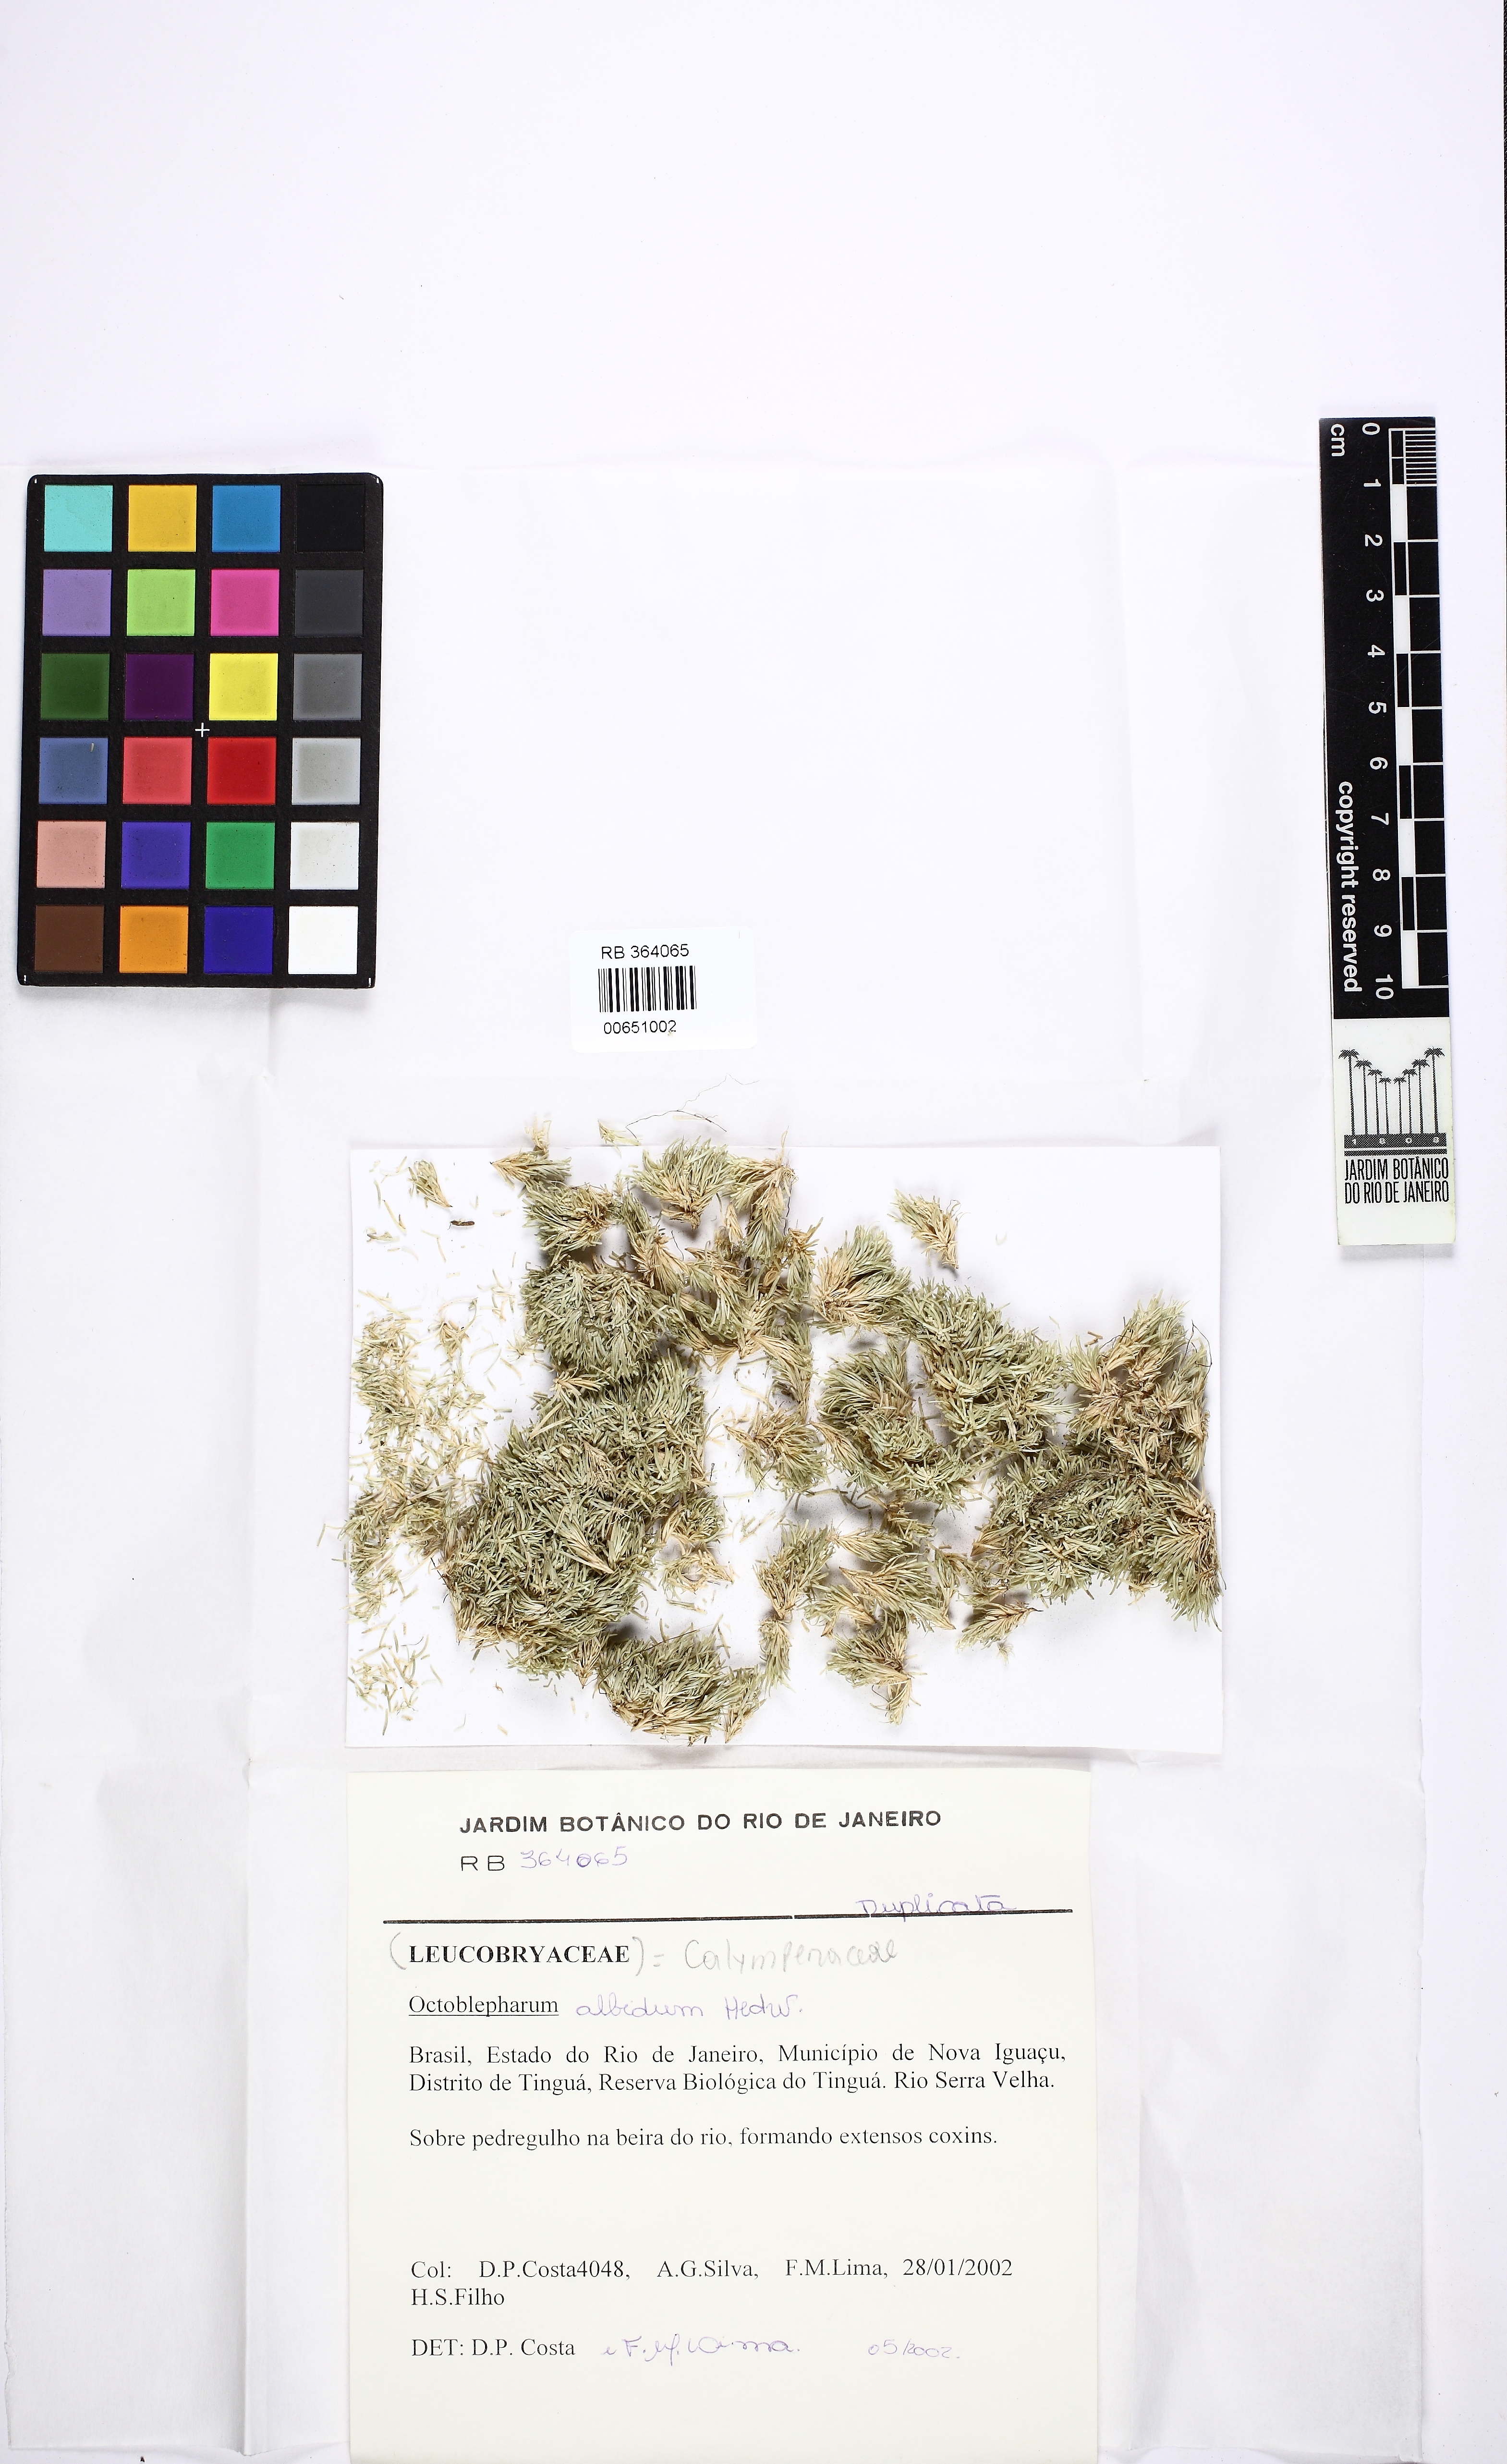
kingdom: Plantae
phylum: Bryophyta
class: Bryopsida
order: Dicranales
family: Octoblepharaceae
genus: Octoblepharum
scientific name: Octoblepharum albidum
